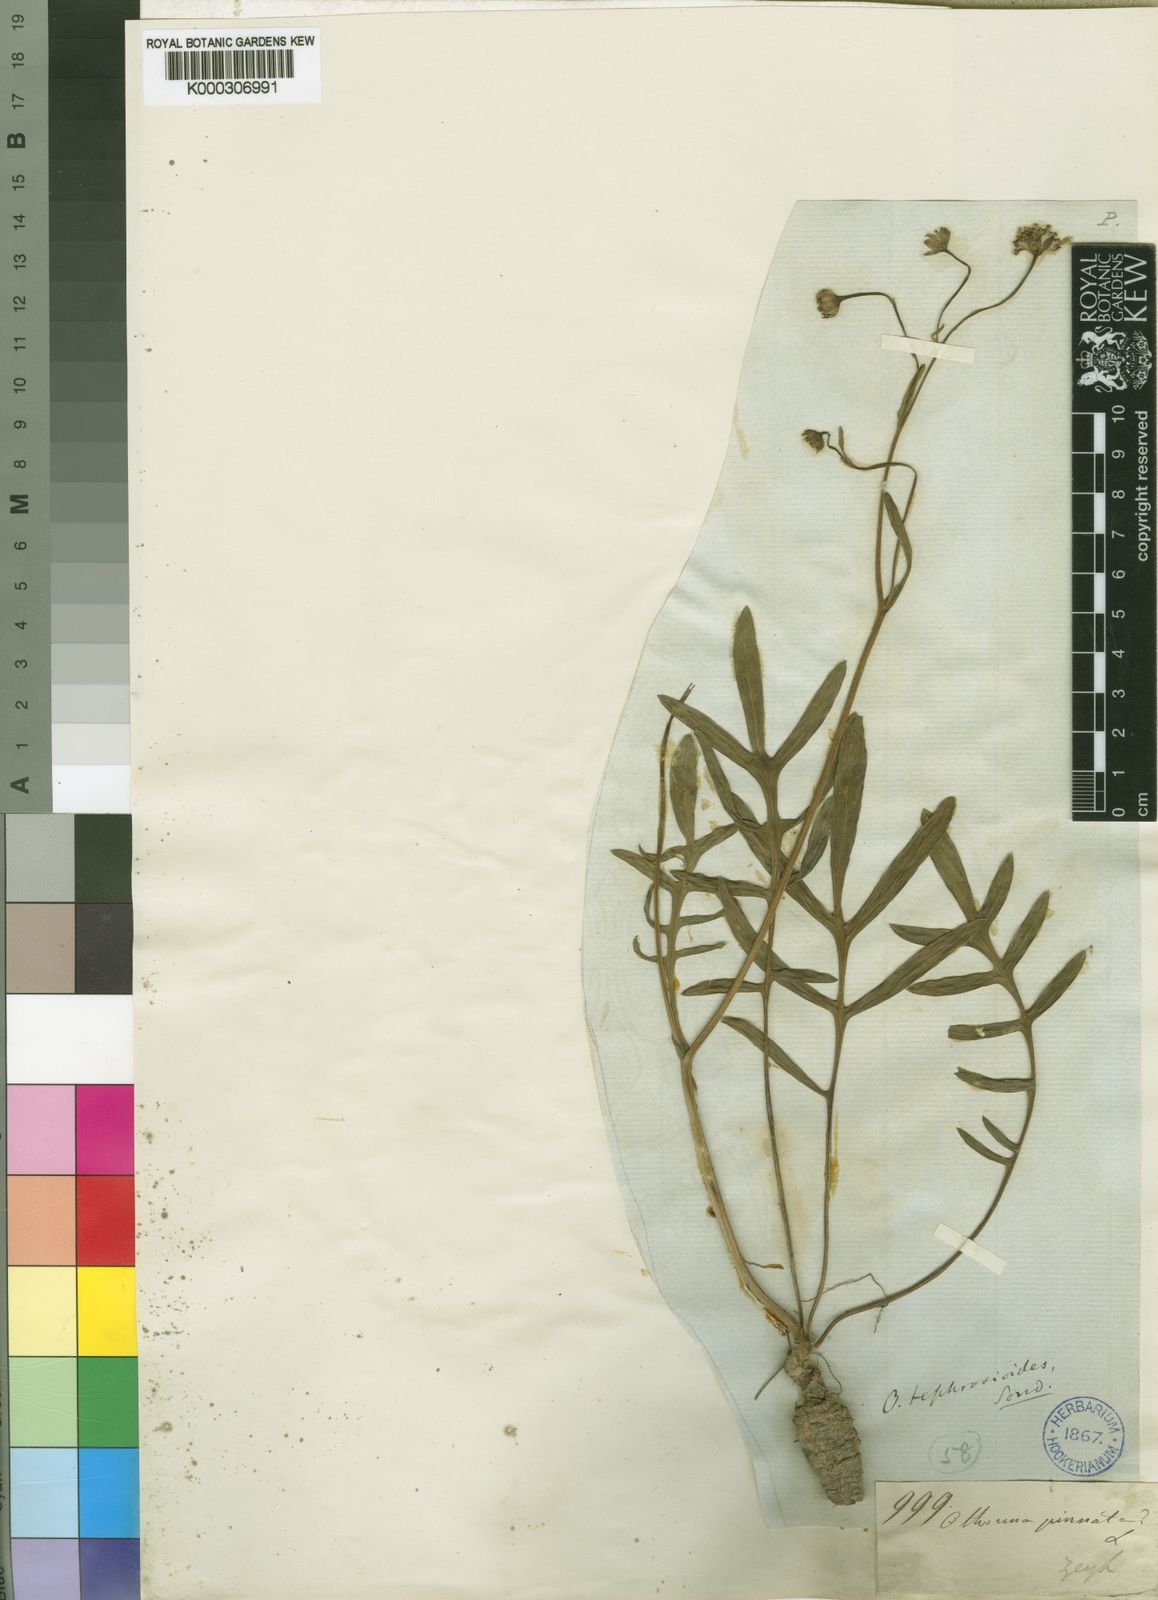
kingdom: Plantae
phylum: Tracheophyta
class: Magnoliopsida
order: Asterales
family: Asteraceae
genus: Othonna
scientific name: Othonna tephrosioides
